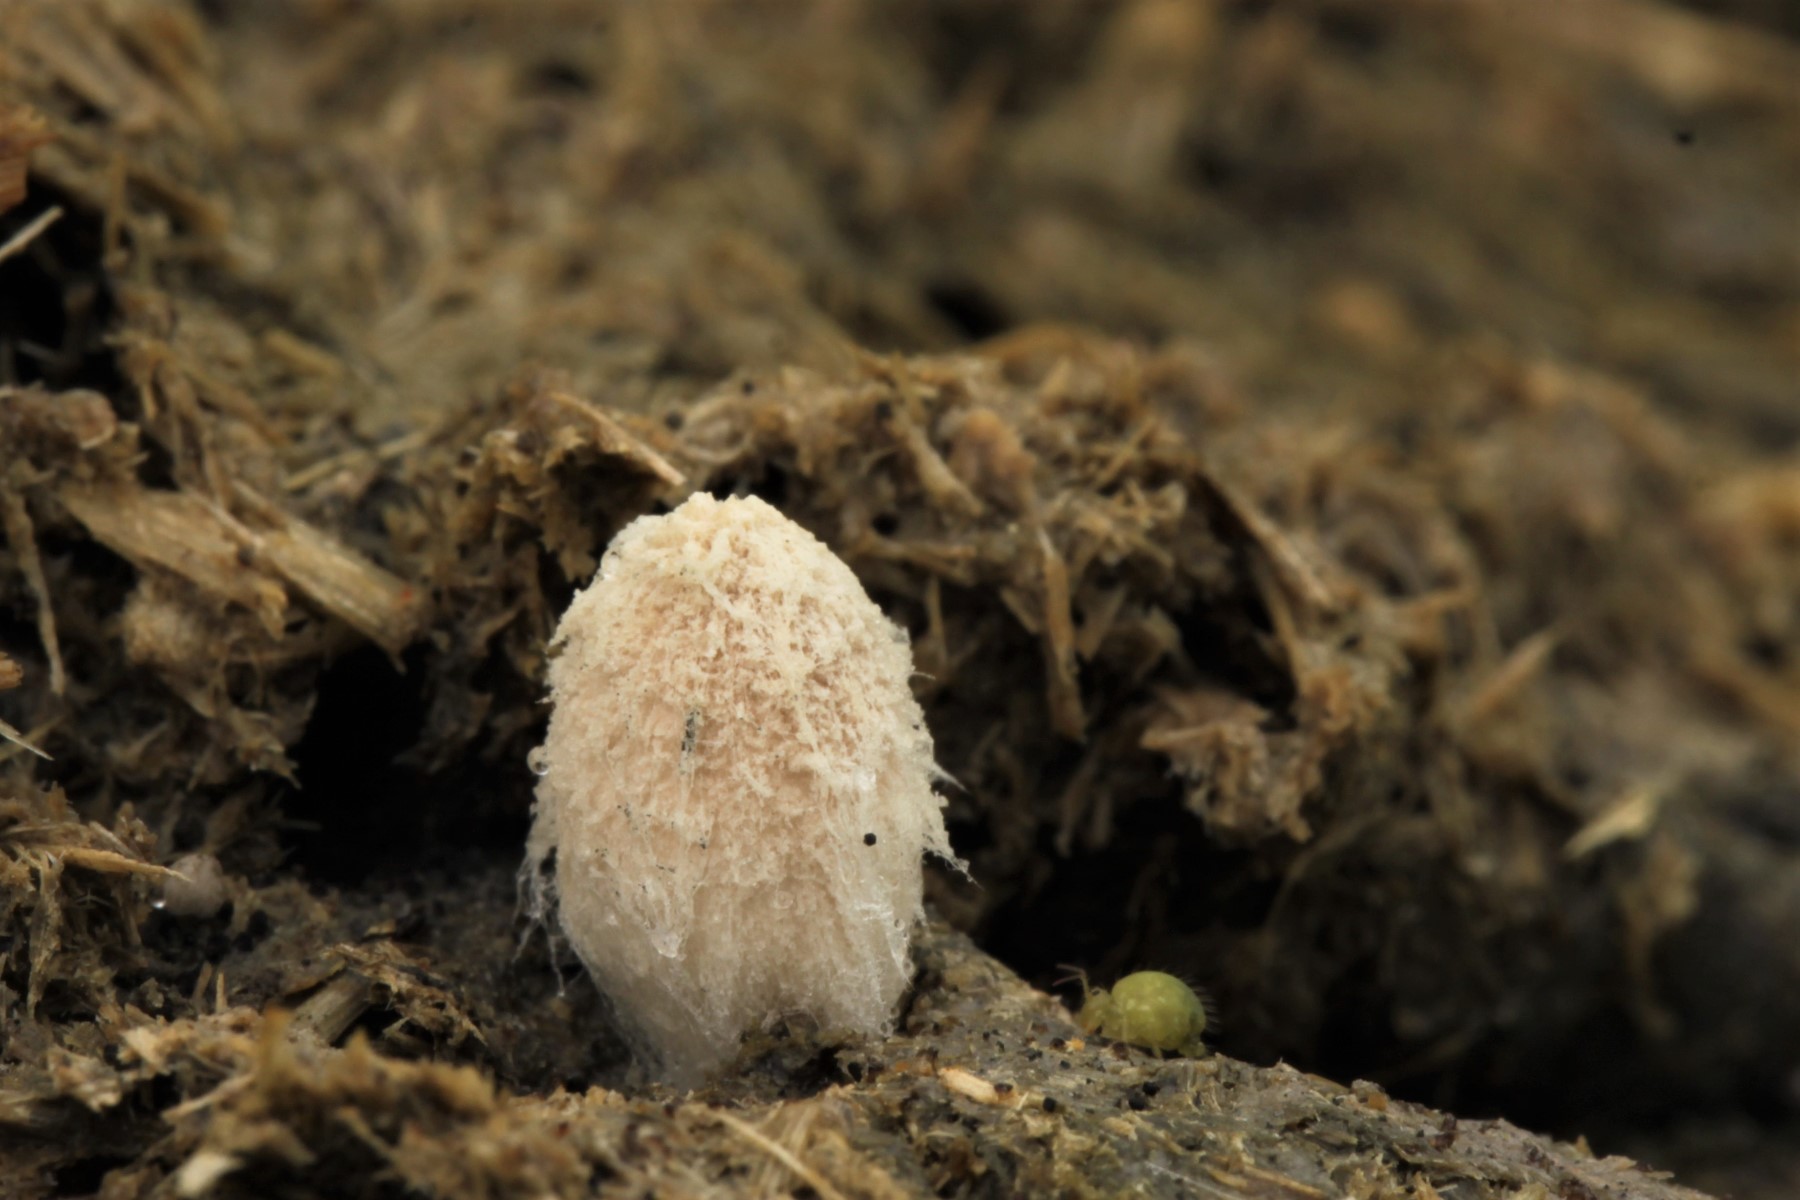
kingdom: Fungi
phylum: Basidiomycota
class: Agaricomycetes
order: Agaricales
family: Psathyrellaceae
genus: Coprinopsis
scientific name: Coprinopsis
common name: blækhat
